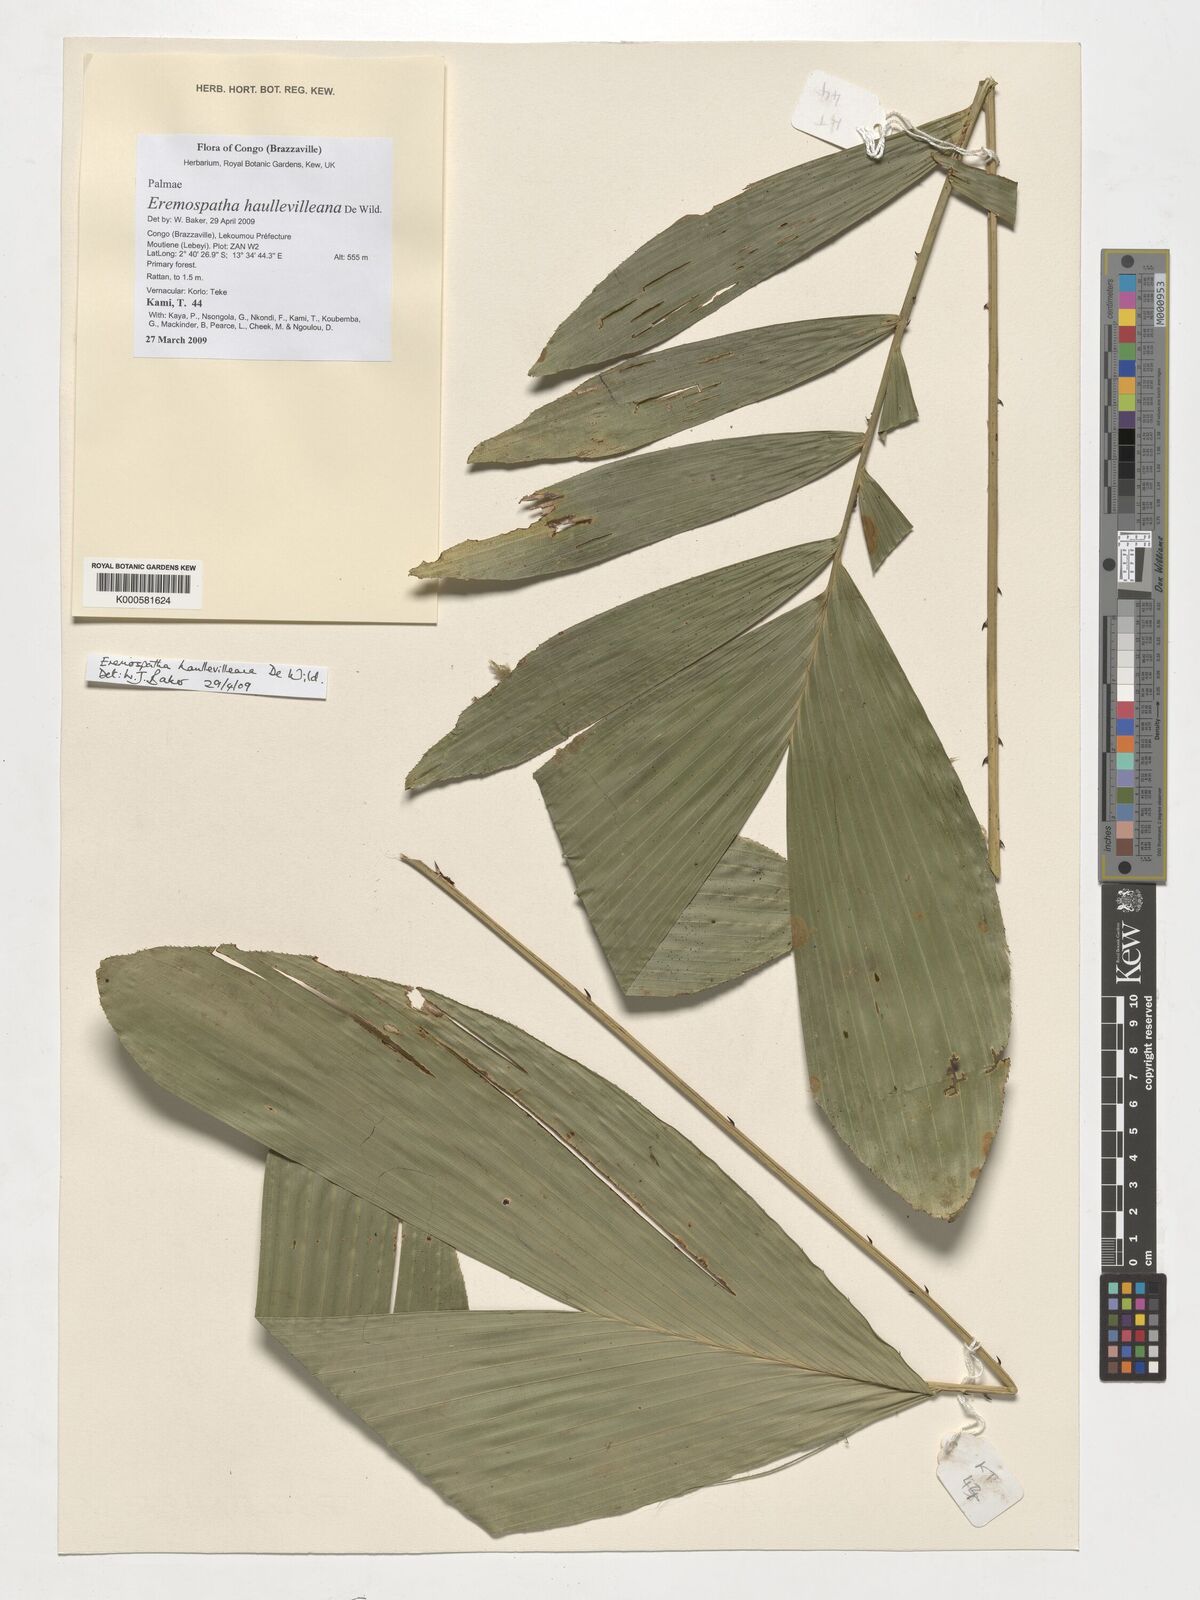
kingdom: Plantae
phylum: Tracheophyta
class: Liliopsida
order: Arecales
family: Arecaceae
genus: Eremospatha
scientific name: Eremospatha haullevilleana
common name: Rattan
